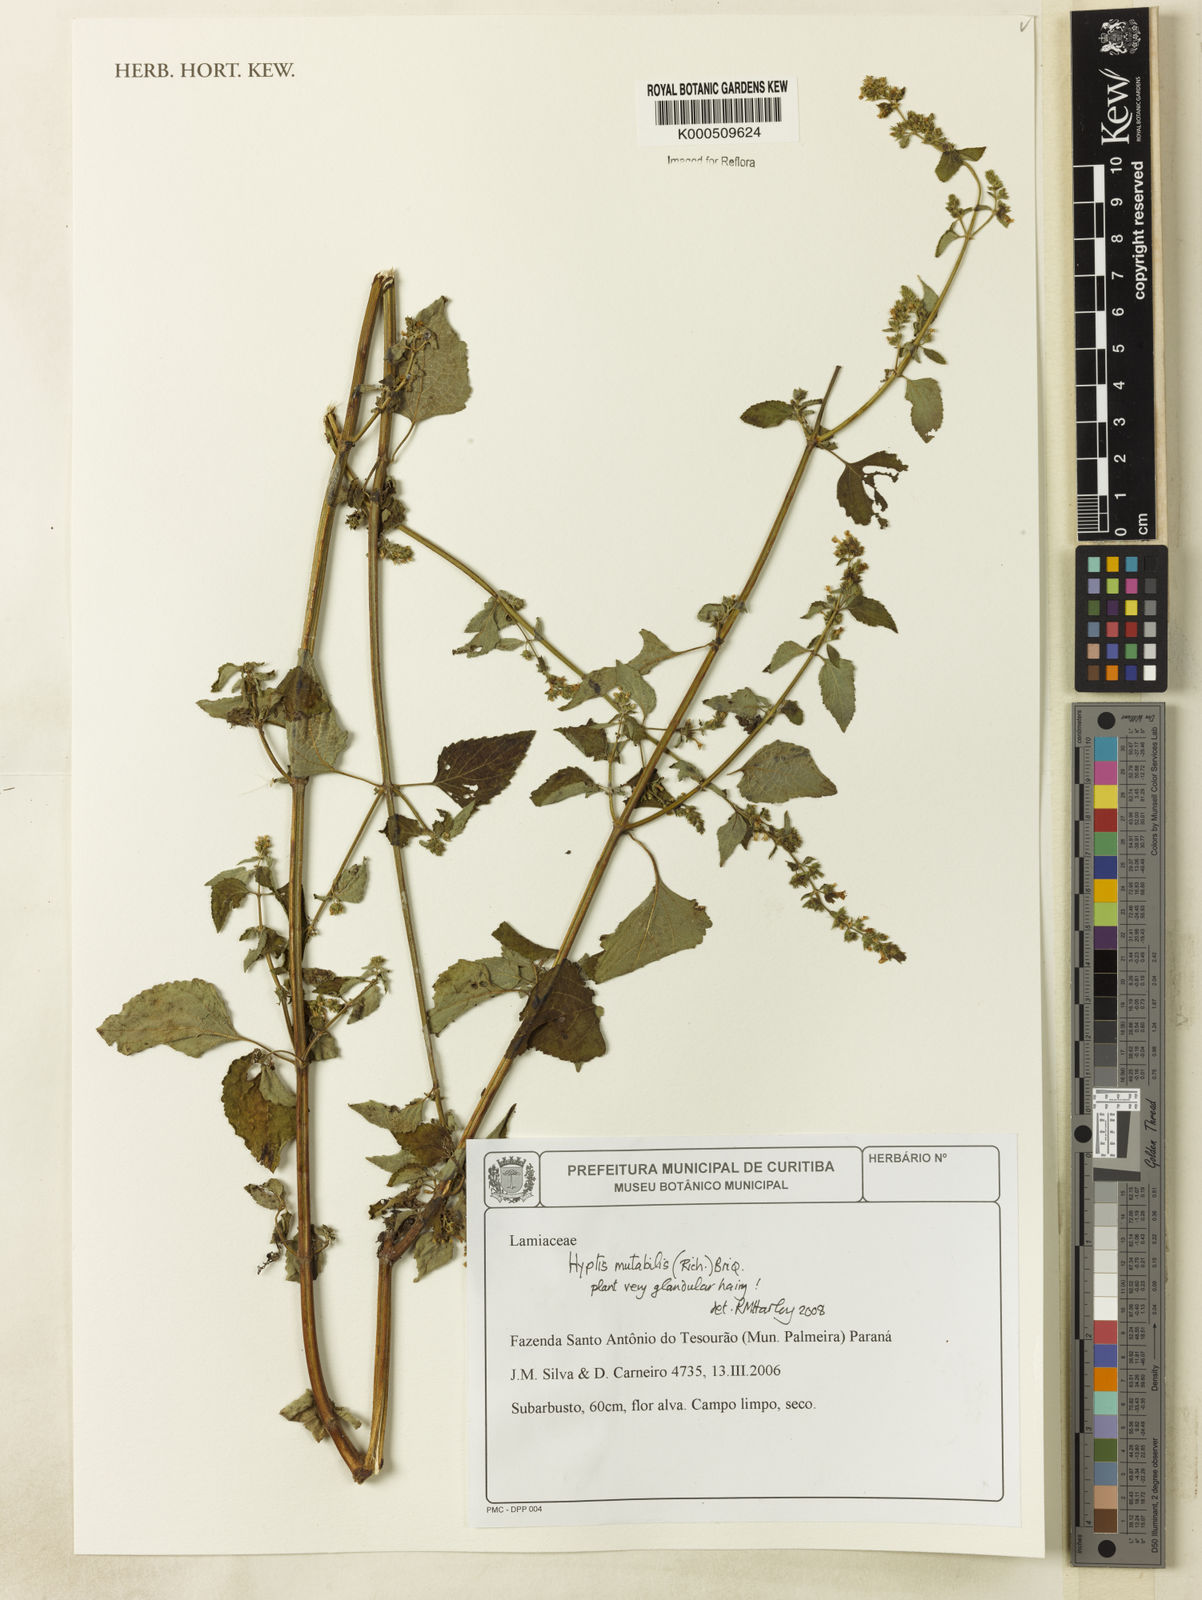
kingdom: Plantae
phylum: Tracheophyta
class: Magnoliopsida
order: Lamiales
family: Lamiaceae
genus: Cantinoa
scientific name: Cantinoa mutabilis
